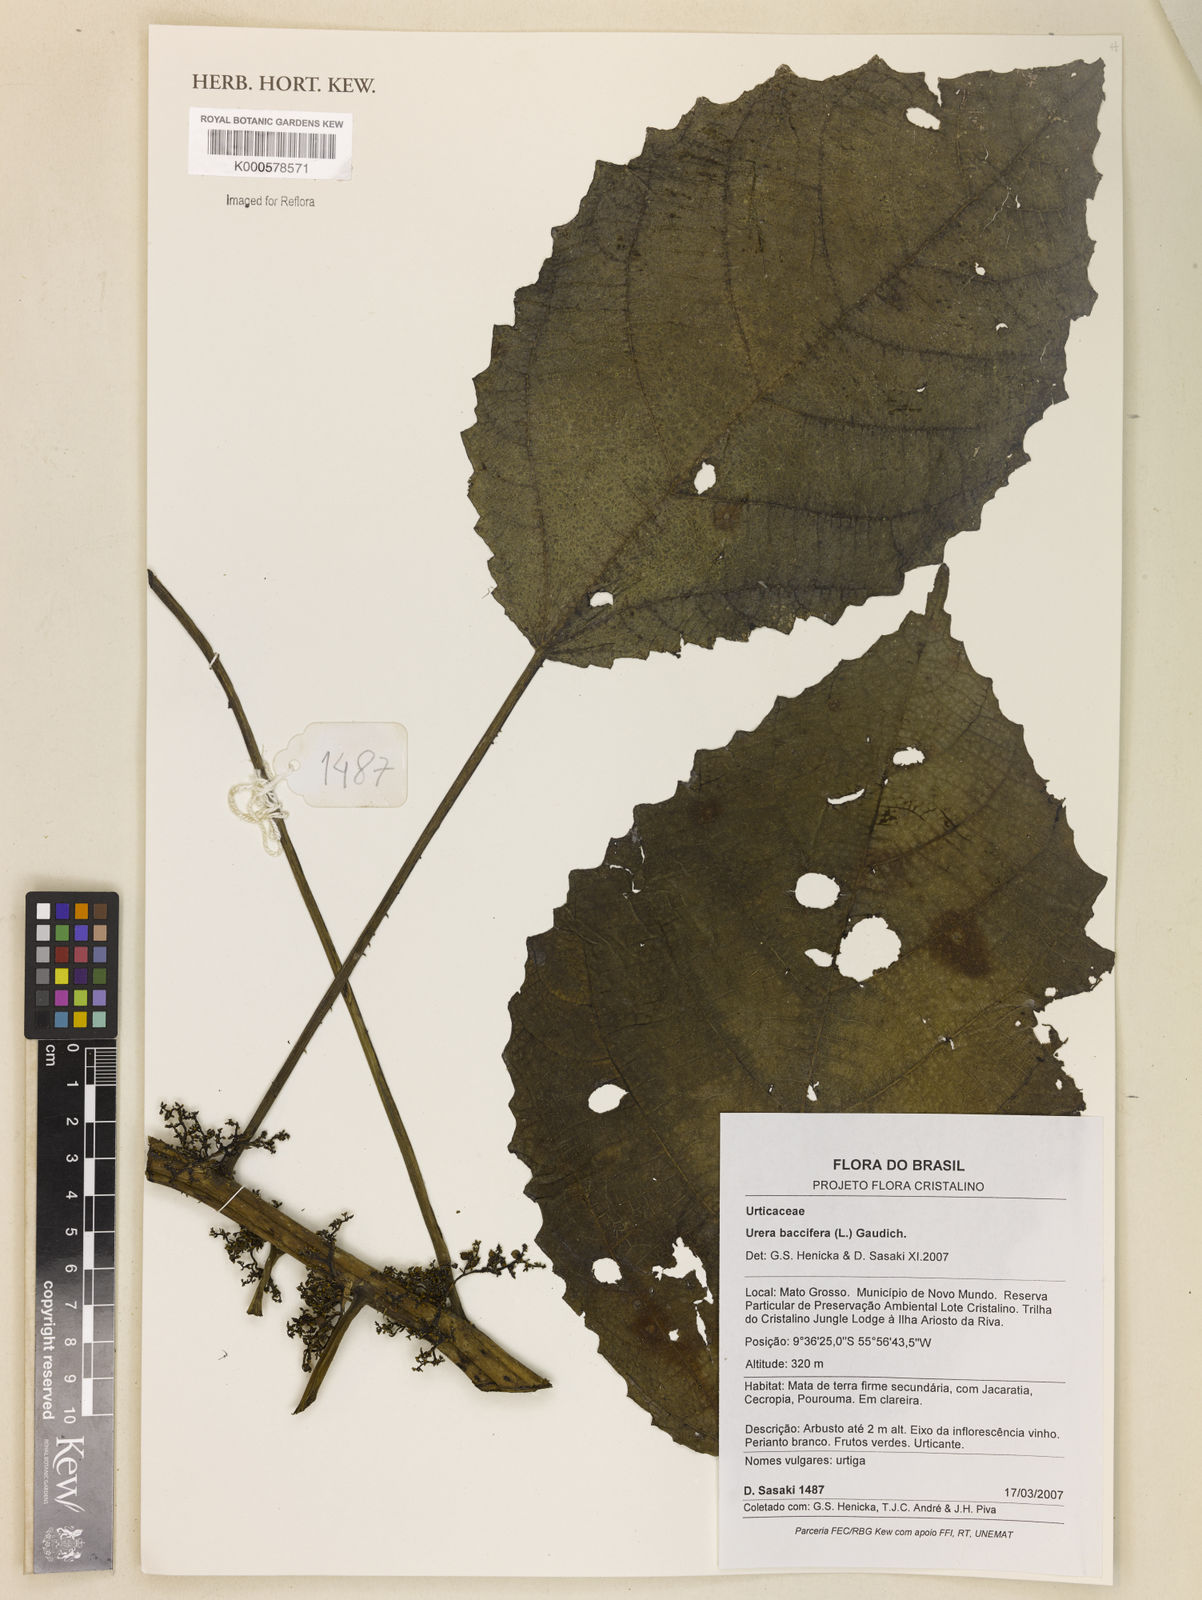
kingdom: Plantae
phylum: Tracheophyta
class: Magnoliopsida
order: Rosales
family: Urticaceae
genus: Urera
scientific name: Urera baccifera
